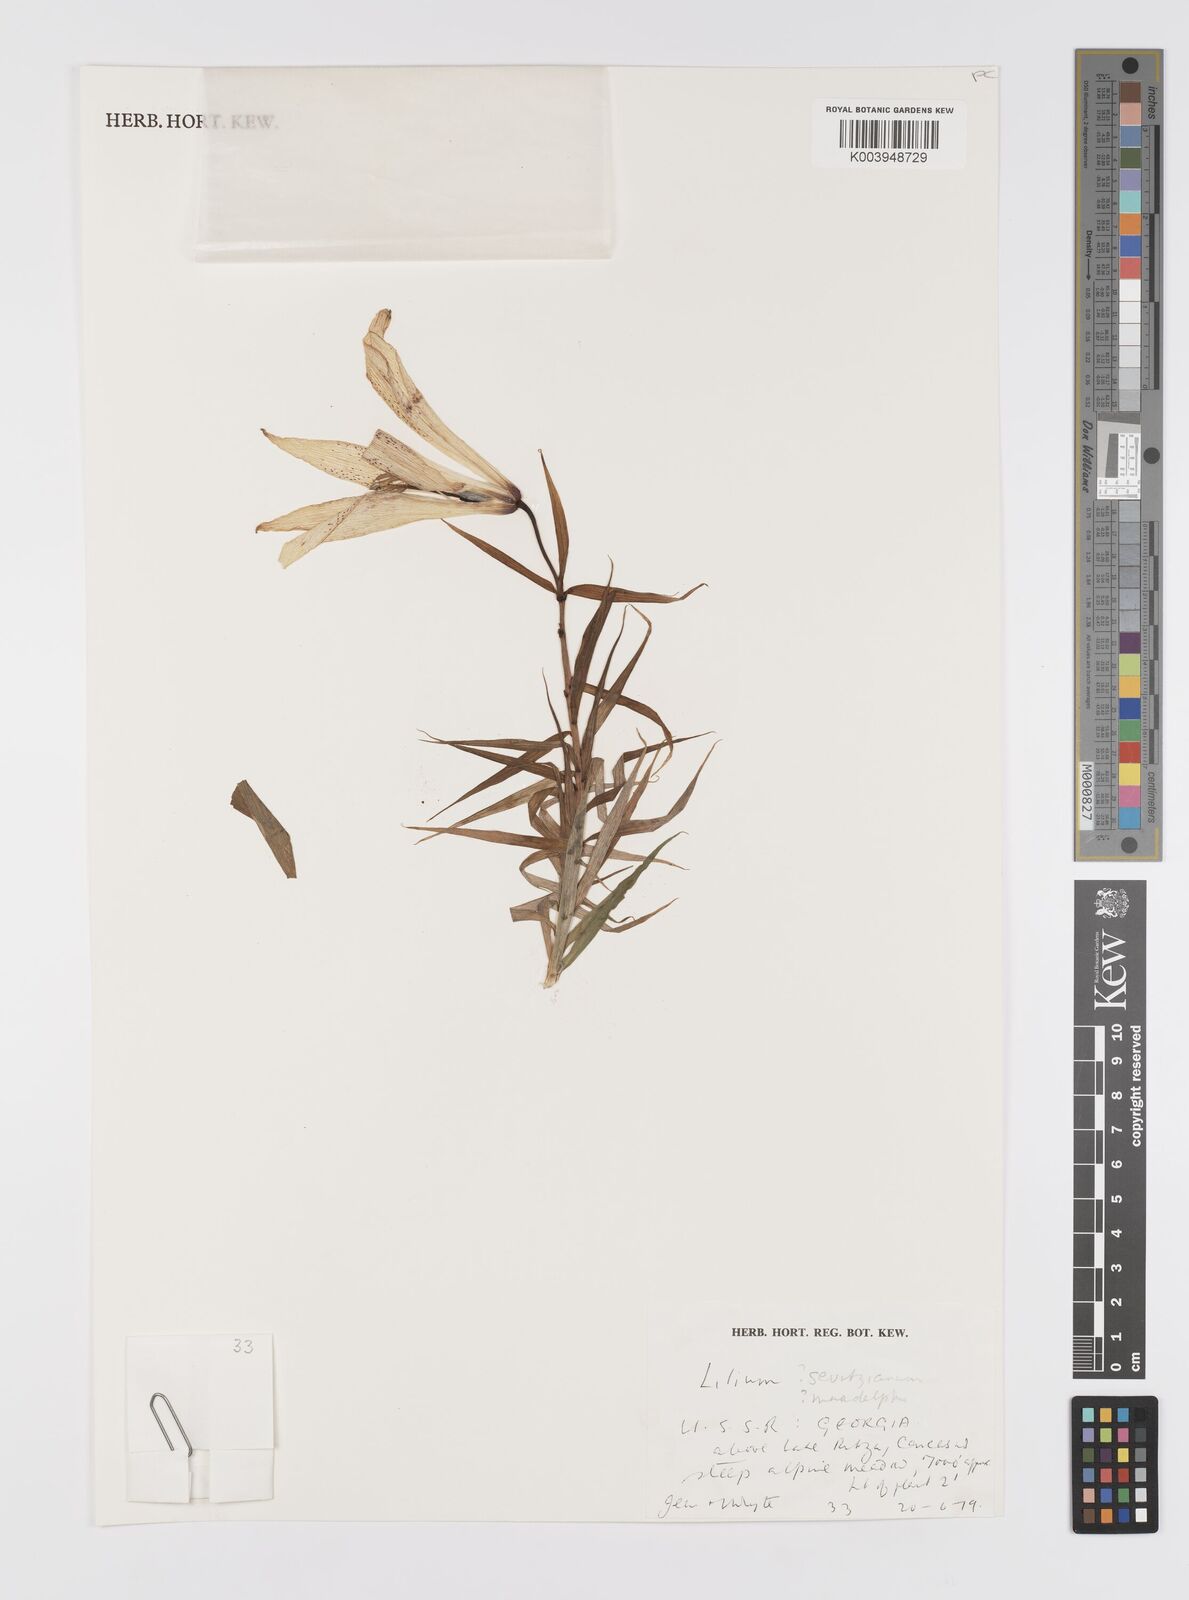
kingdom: Plantae
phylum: Tracheophyta
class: Liliopsida
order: Liliales
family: Liliaceae
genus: Lilium
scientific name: Lilium szovitsianum
